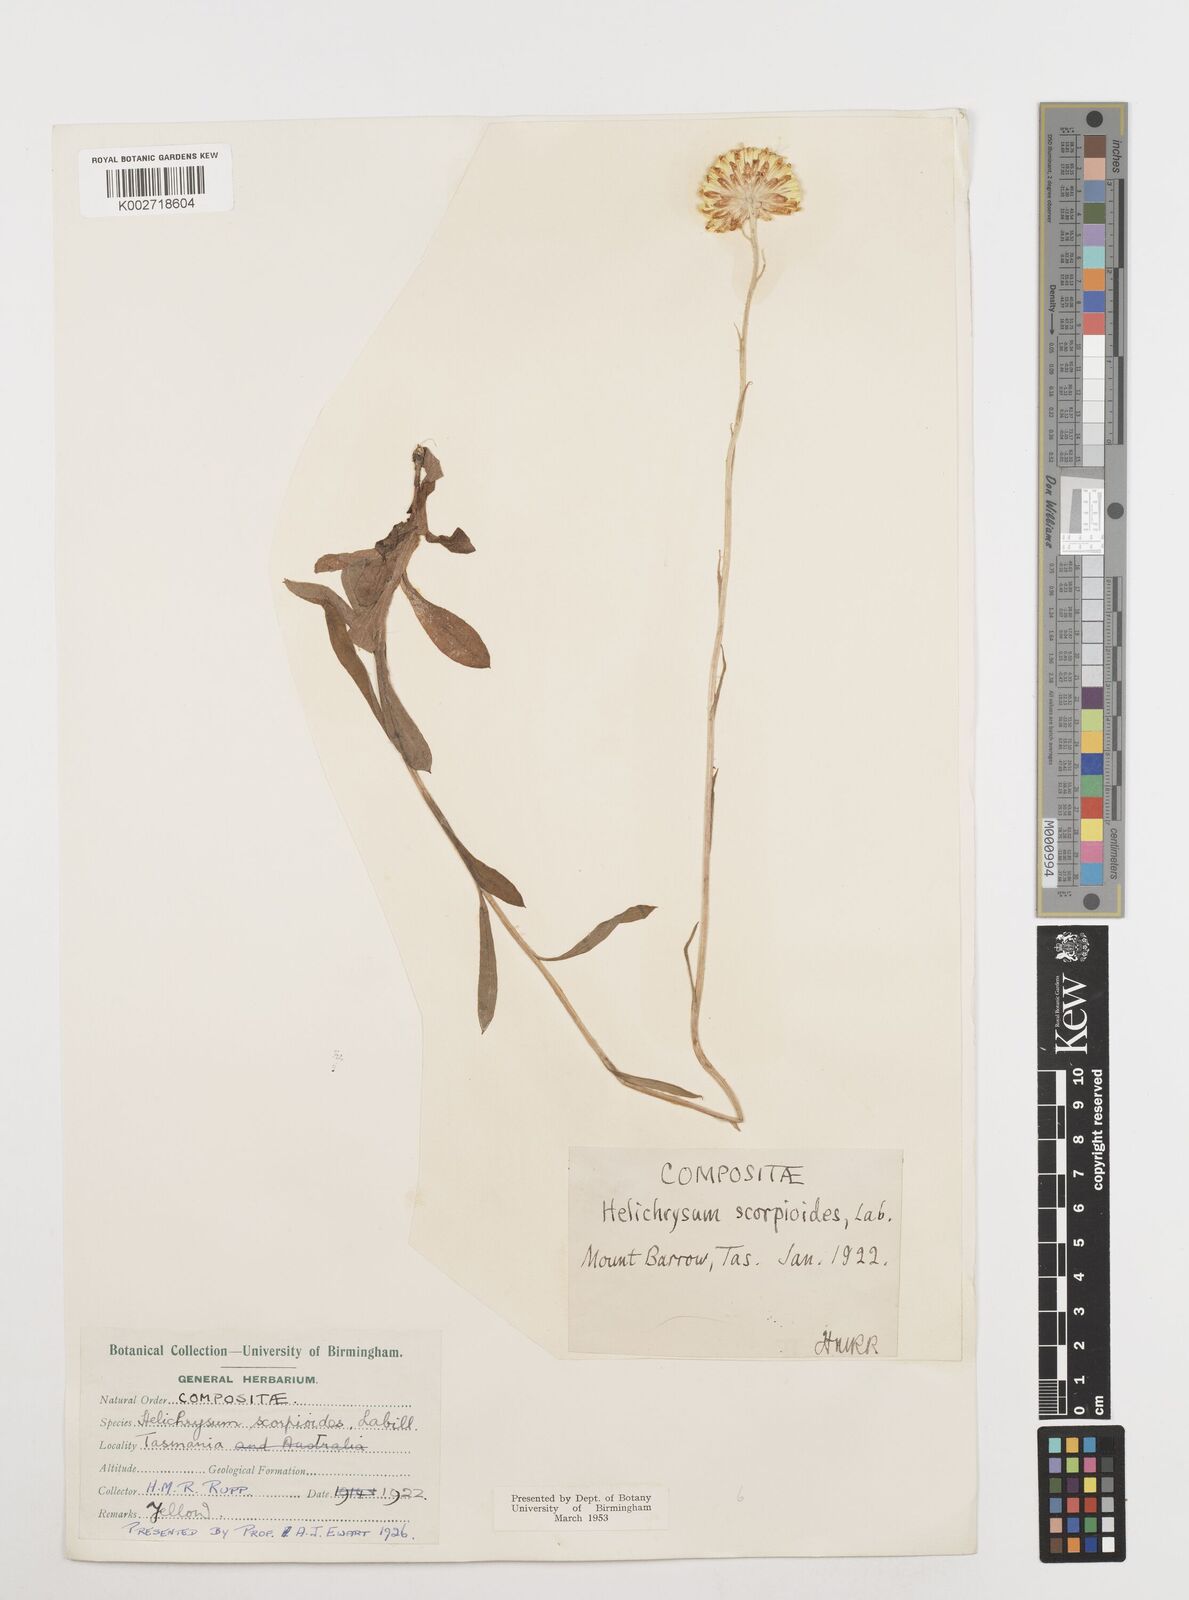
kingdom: Plantae
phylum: Tracheophyta
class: Magnoliopsida
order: Asterales
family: Asteraceae
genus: Coronidium
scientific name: Coronidium scorpioides
